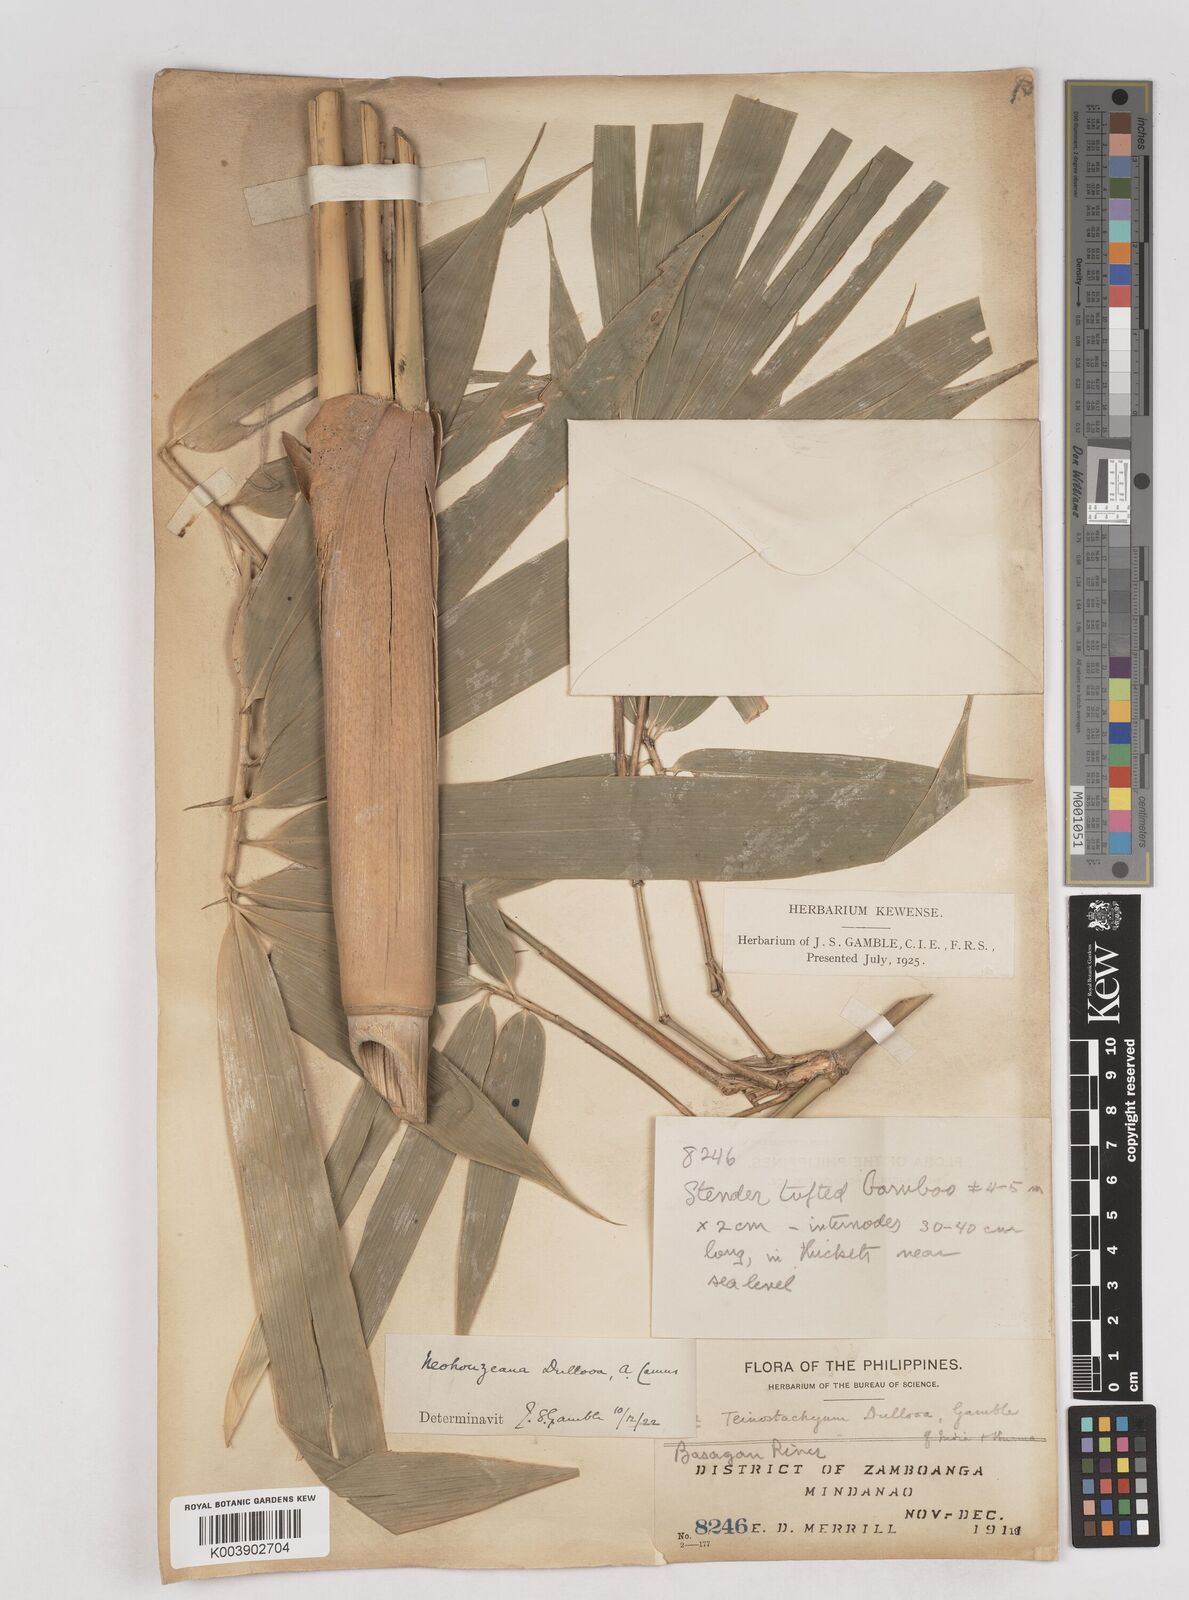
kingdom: Plantae
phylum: Tracheophyta
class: Liliopsida
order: Poales
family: Poaceae
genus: Schizostachyum
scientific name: Schizostachyum
